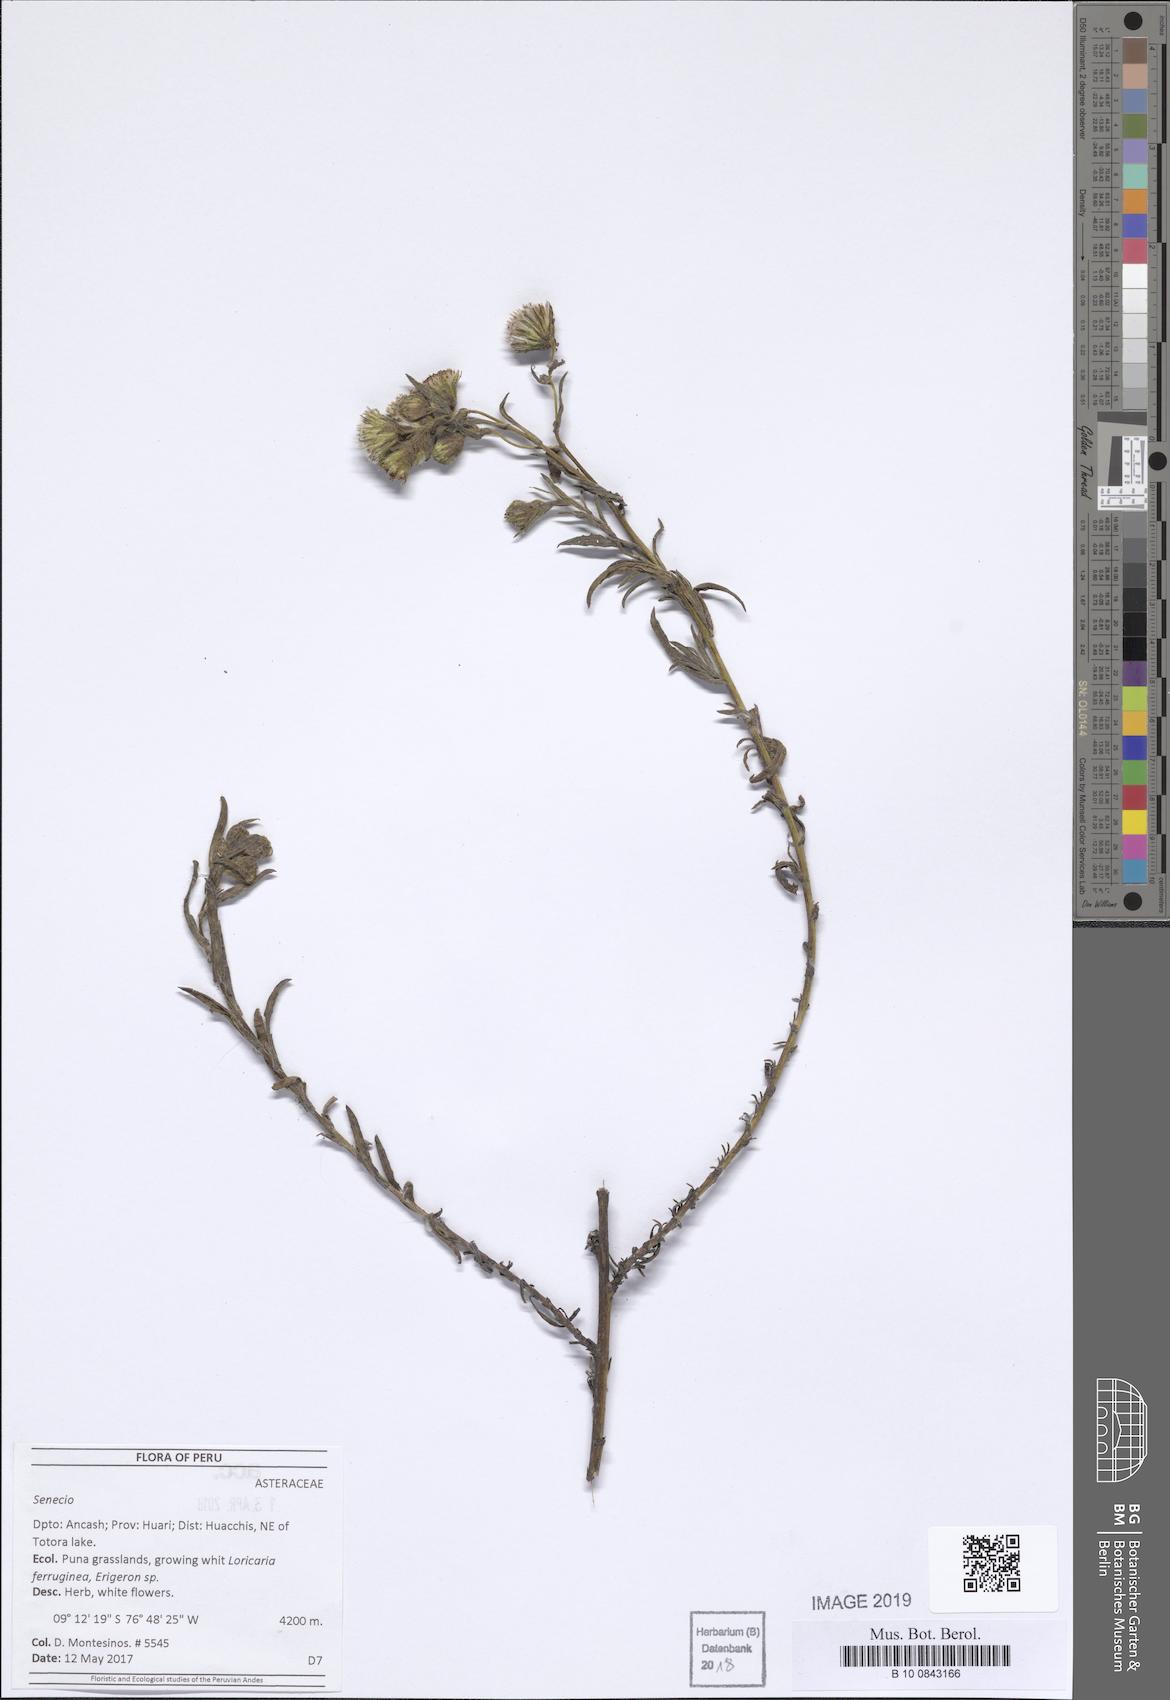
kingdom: Plantae
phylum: Tracheophyta
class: Magnoliopsida
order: Asterales
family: Asteraceae
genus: Senecio
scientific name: Senecio chiquianensis
